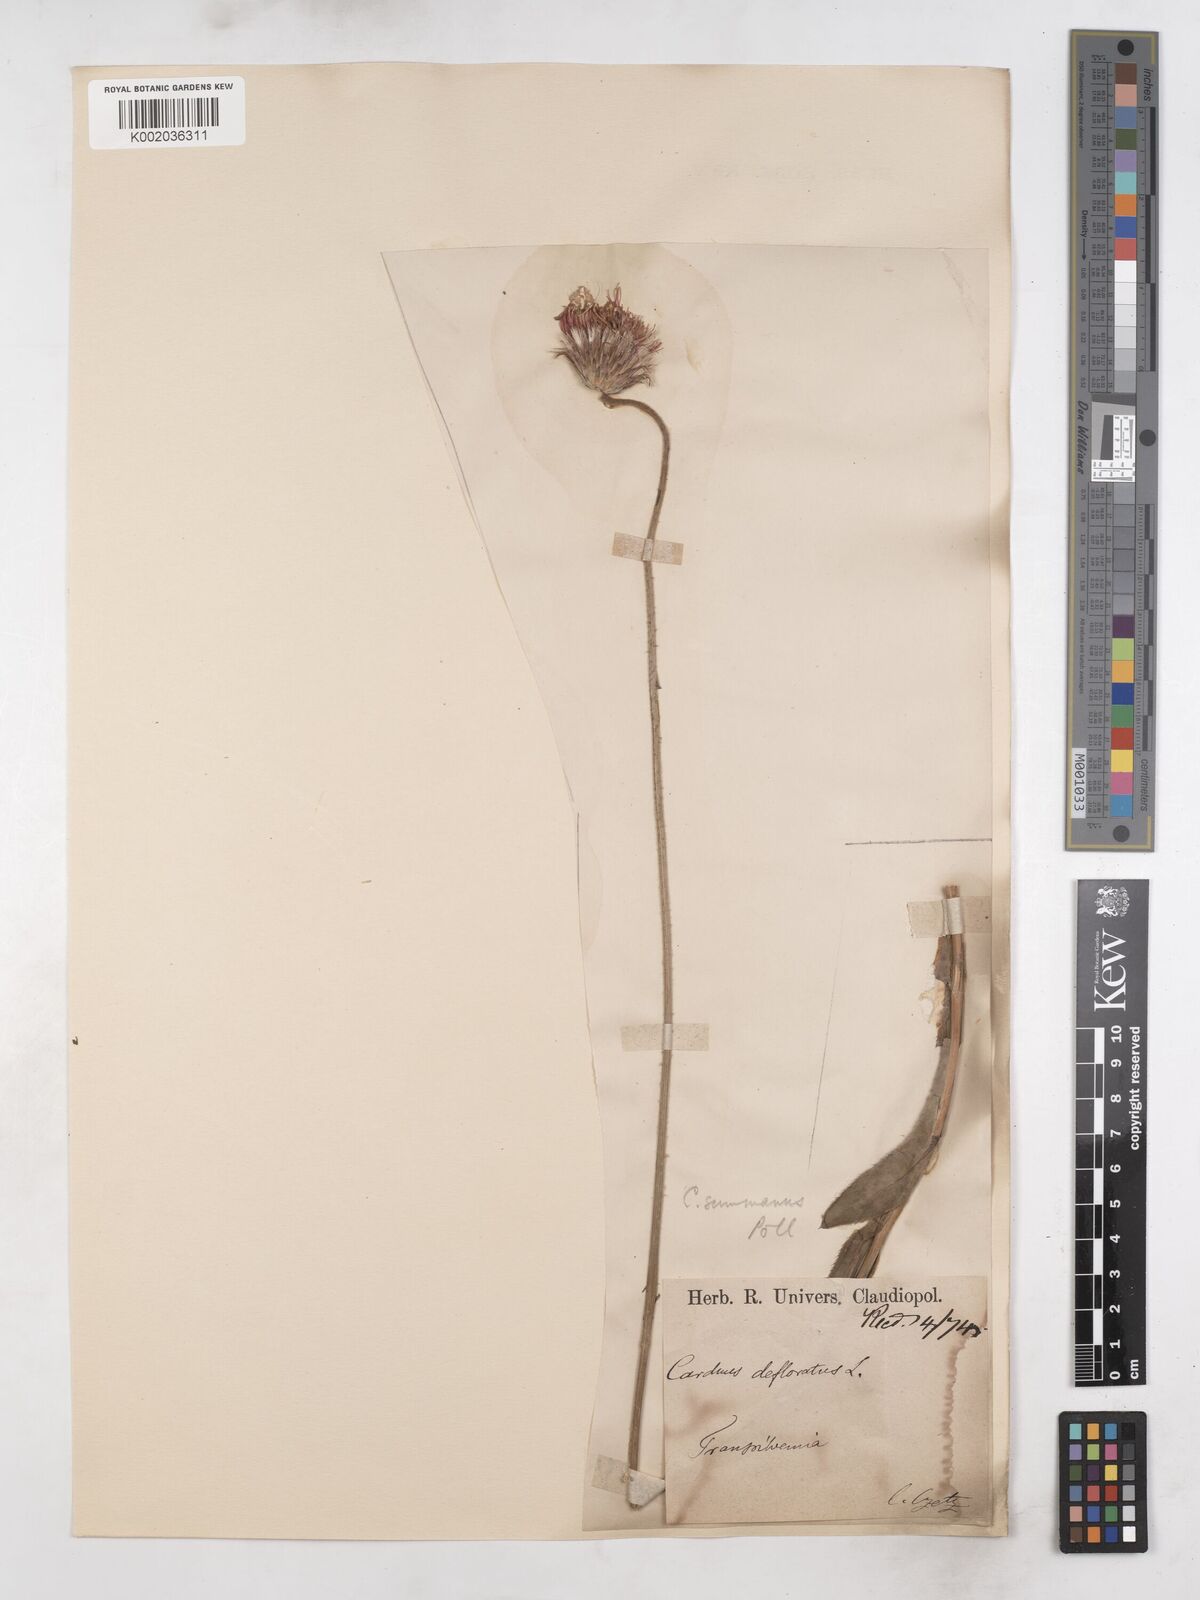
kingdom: Plantae
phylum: Tracheophyta
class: Magnoliopsida
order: Asterales
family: Asteraceae
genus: Carduus
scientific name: Carduus defloratus
